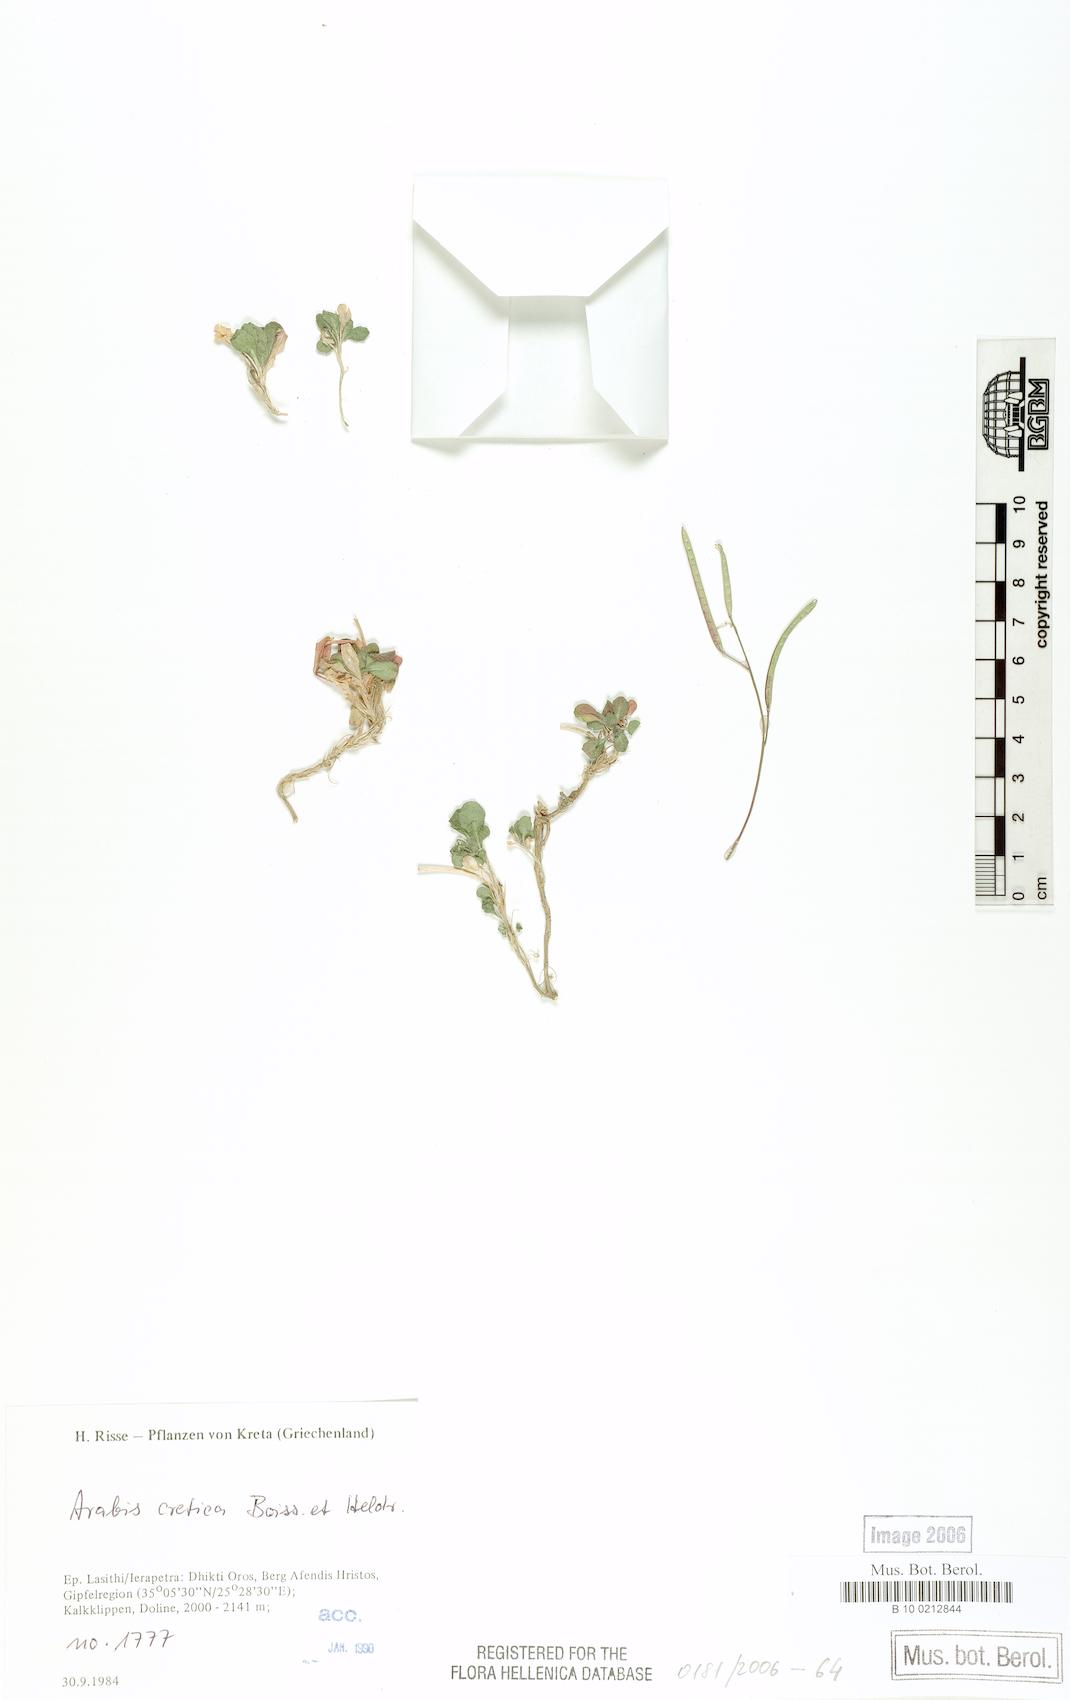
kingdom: Plantae
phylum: Tracheophyta
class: Magnoliopsida
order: Brassicales
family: Brassicaceae
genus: Arabis
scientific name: Arabis cretica
